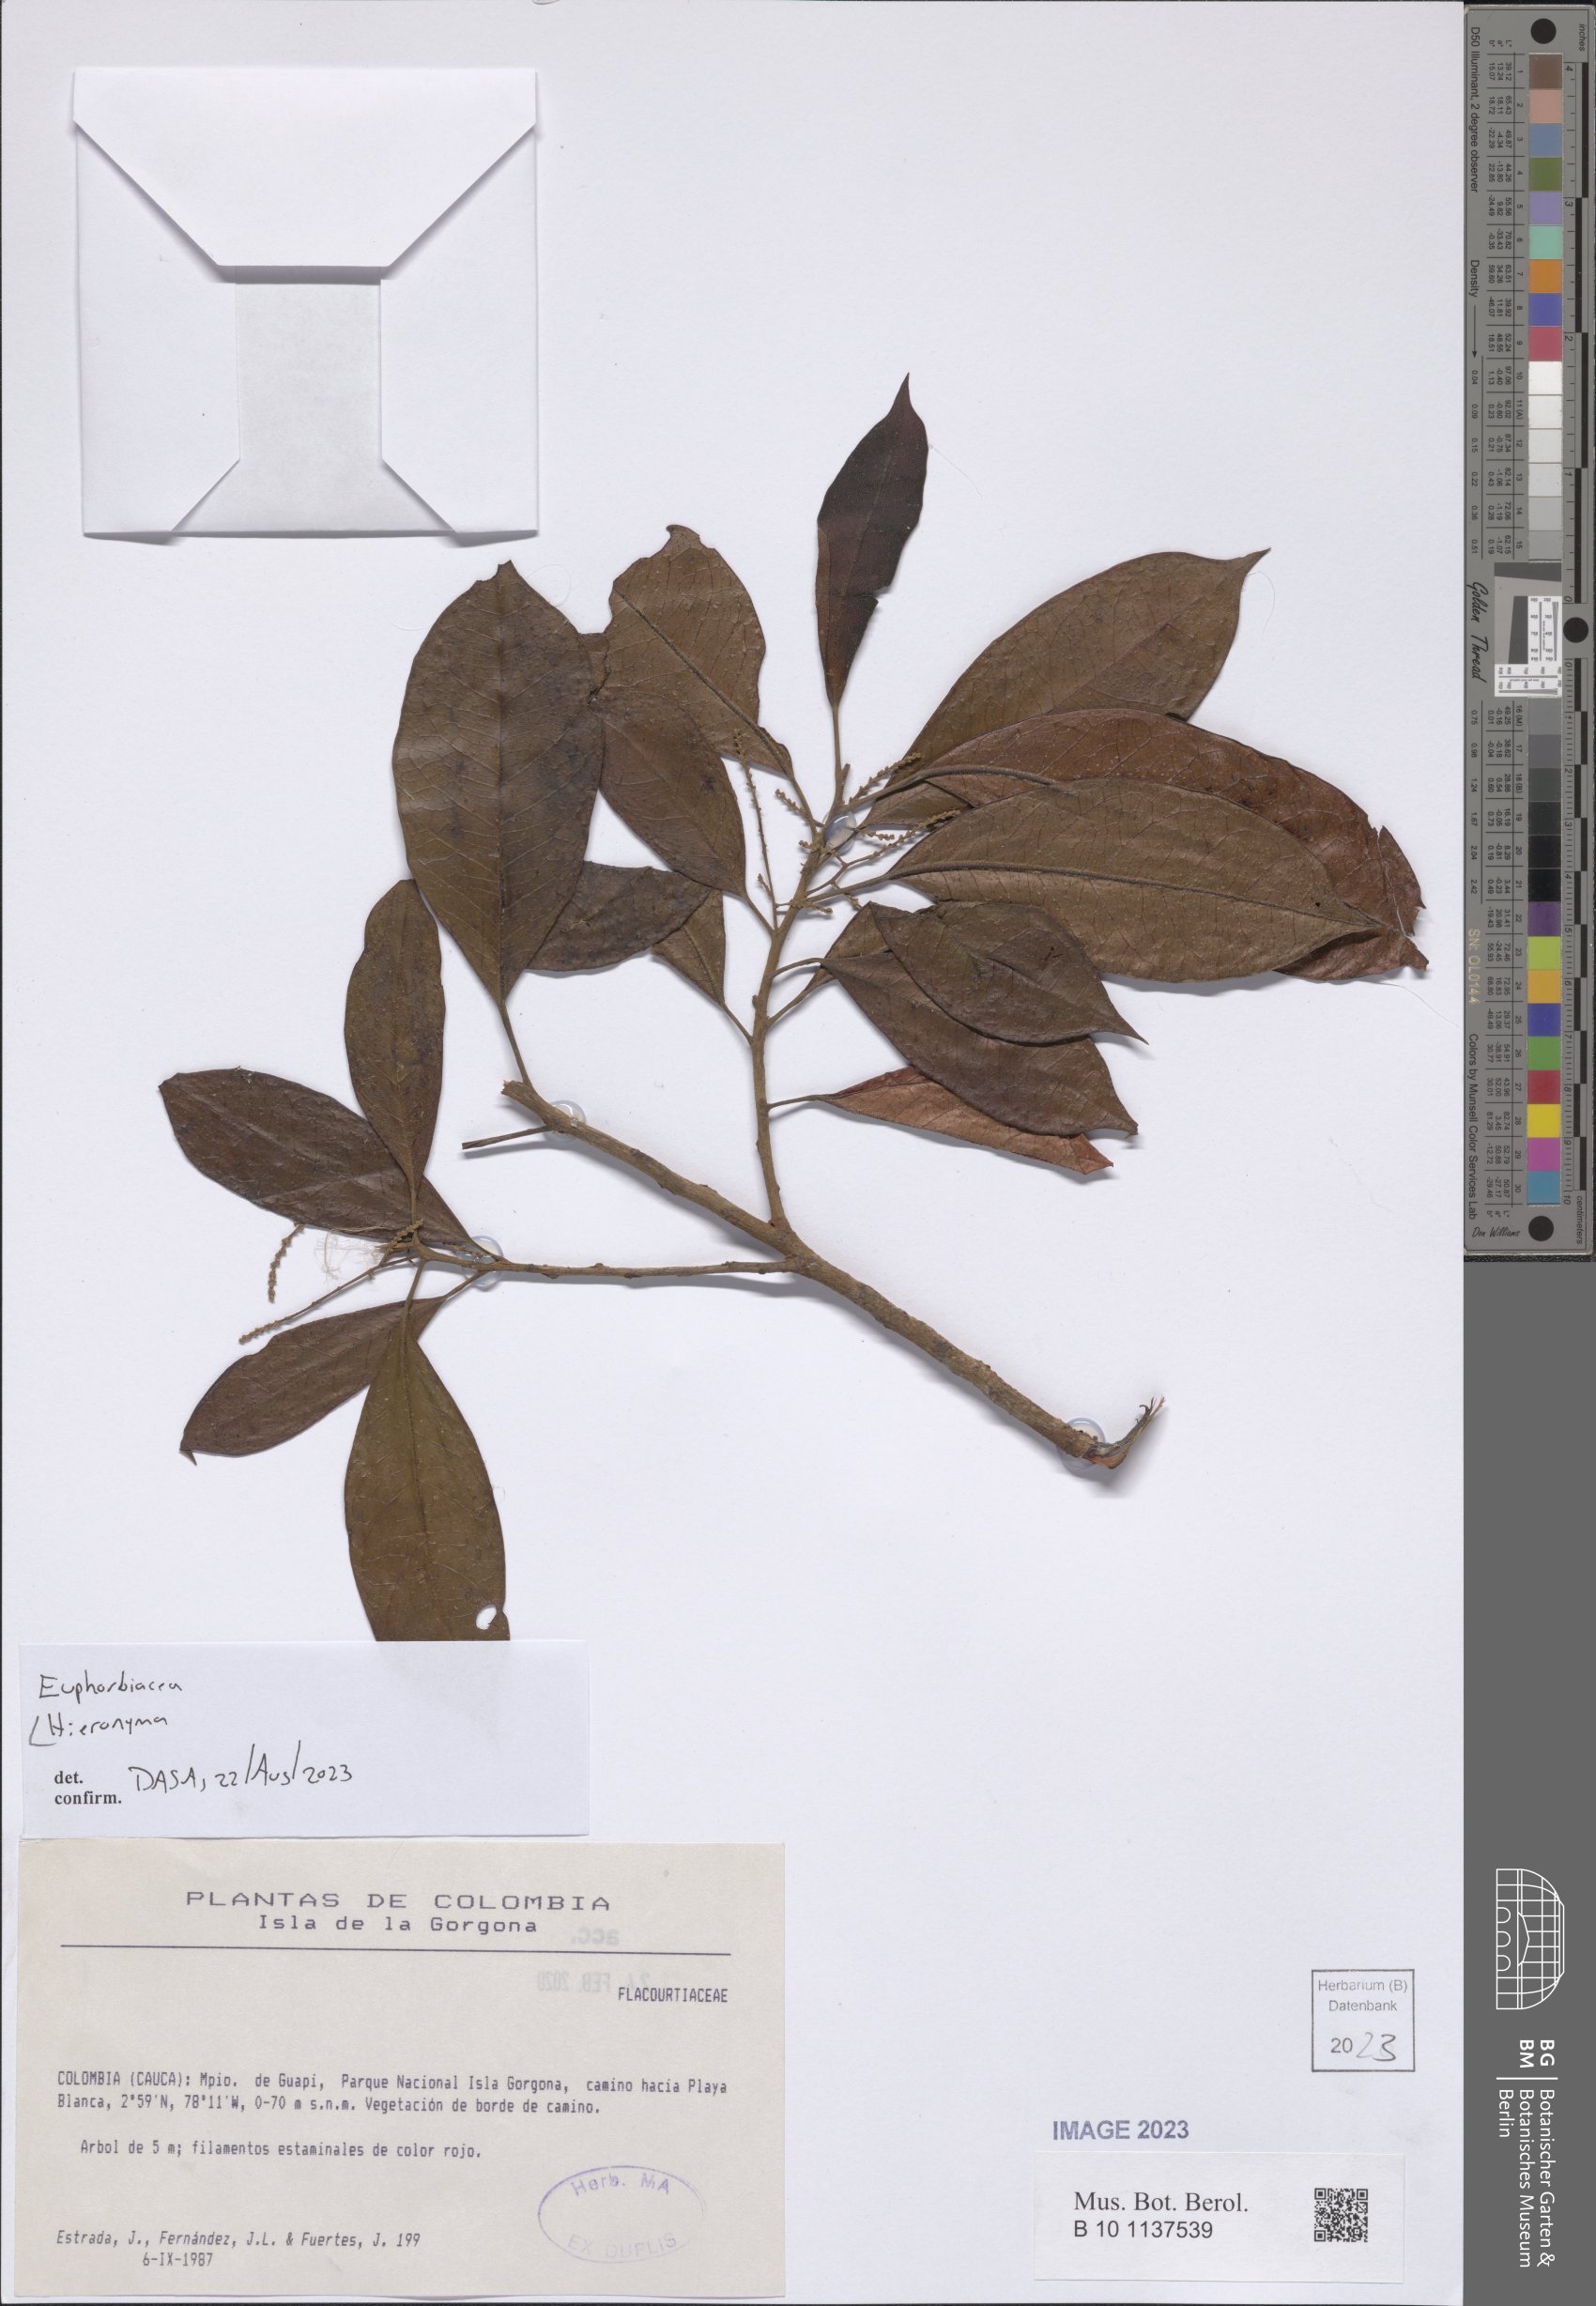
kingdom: Plantae
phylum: Tracheophyta
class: Magnoliopsida
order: Malpighiales
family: Phyllanthaceae
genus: Hieronyma
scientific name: Hieronyma
